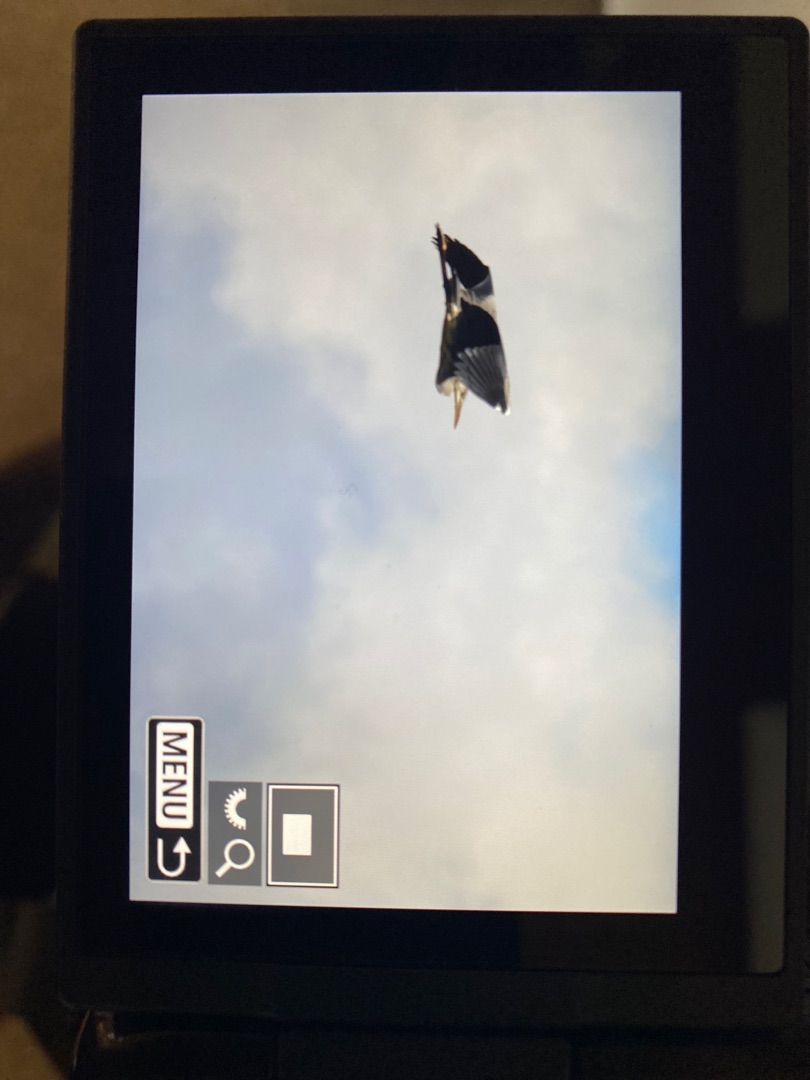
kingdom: Animalia
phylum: Chordata
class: Aves
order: Pelecaniformes
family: Ardeidae
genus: Ardea
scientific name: Ardea cinerea
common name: Fiskehejre
